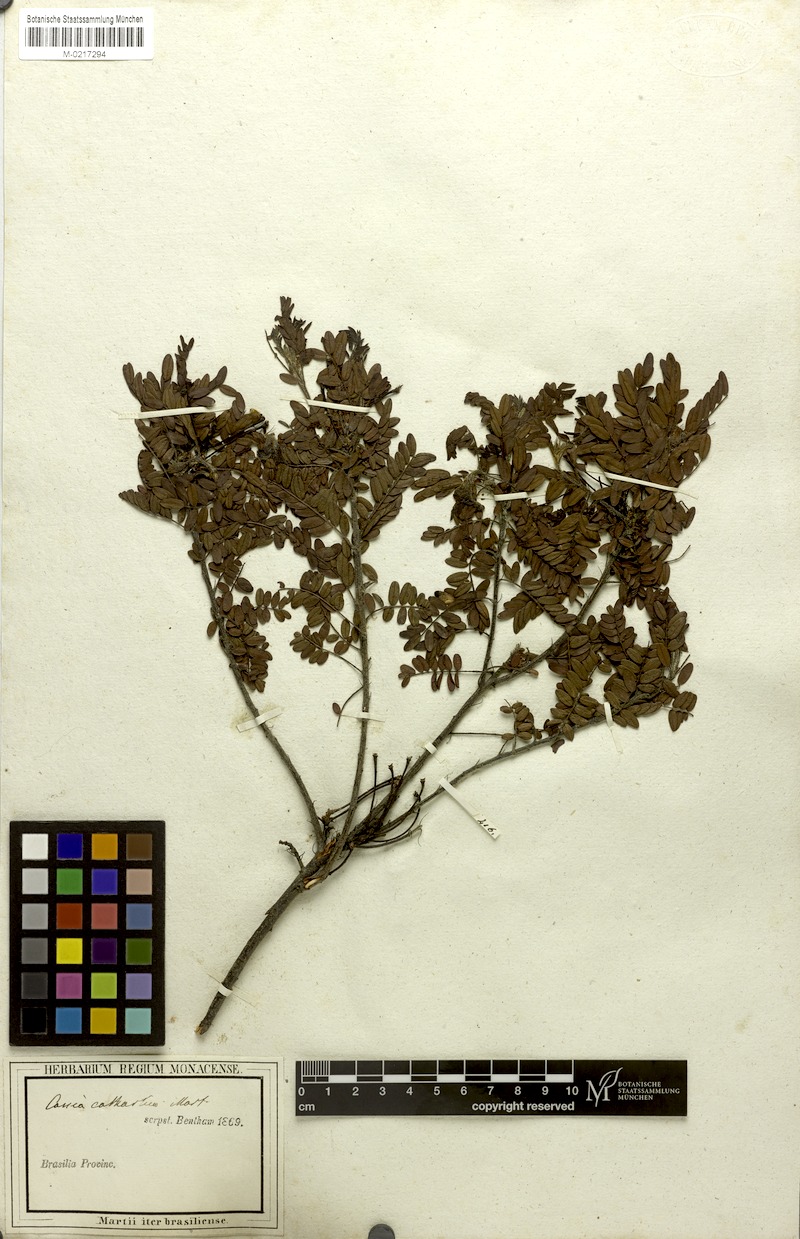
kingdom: Plantae
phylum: Tracheophyta
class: Magnoliopsida
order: Fabales
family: Fabaceae
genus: Chamaecrista
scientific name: Chamaecrista cathartica
